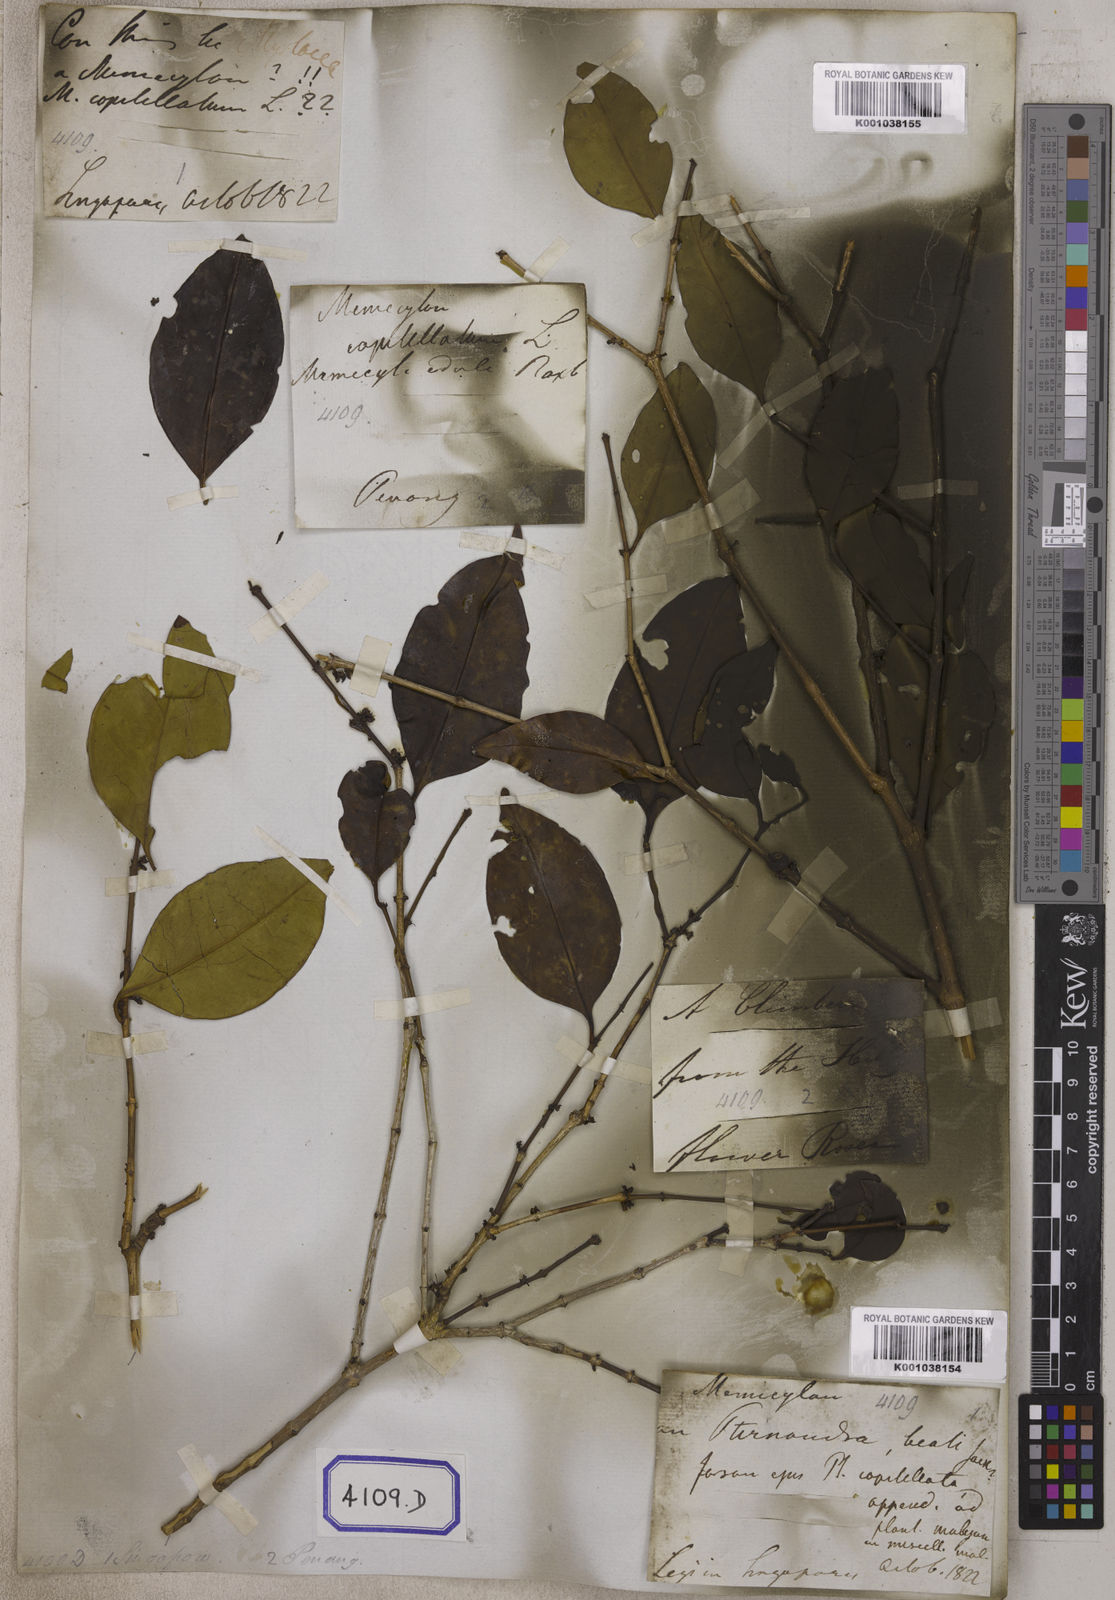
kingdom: Plantae
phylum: Tracheophyta
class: Magnoliopsida
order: Myrtales
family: Melastomataceae
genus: Memecylon
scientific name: Memecylon umbellatum
